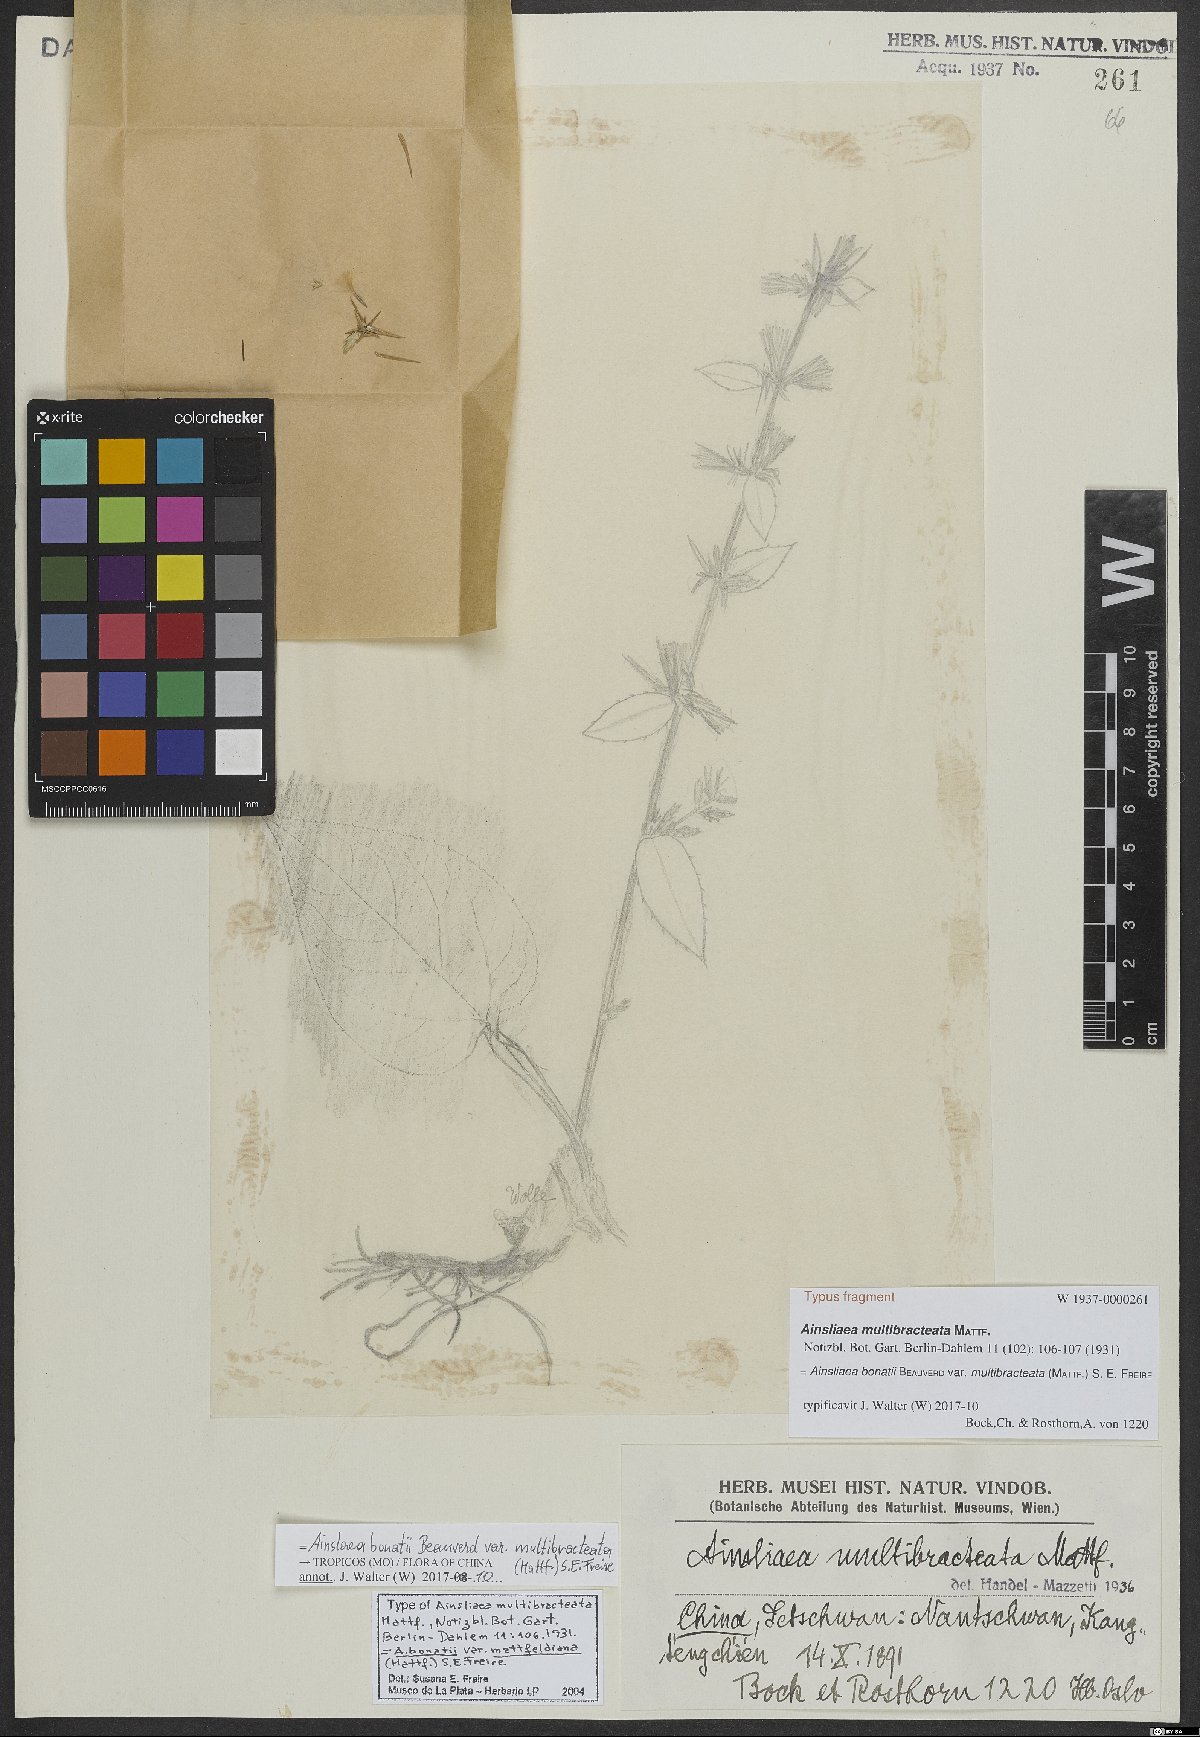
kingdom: Plantae
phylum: Tracheophyta
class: Magnoliopsida
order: Asterales
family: Asteraceae
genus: Ainsliaea
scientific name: Ainsliaea bonatii
